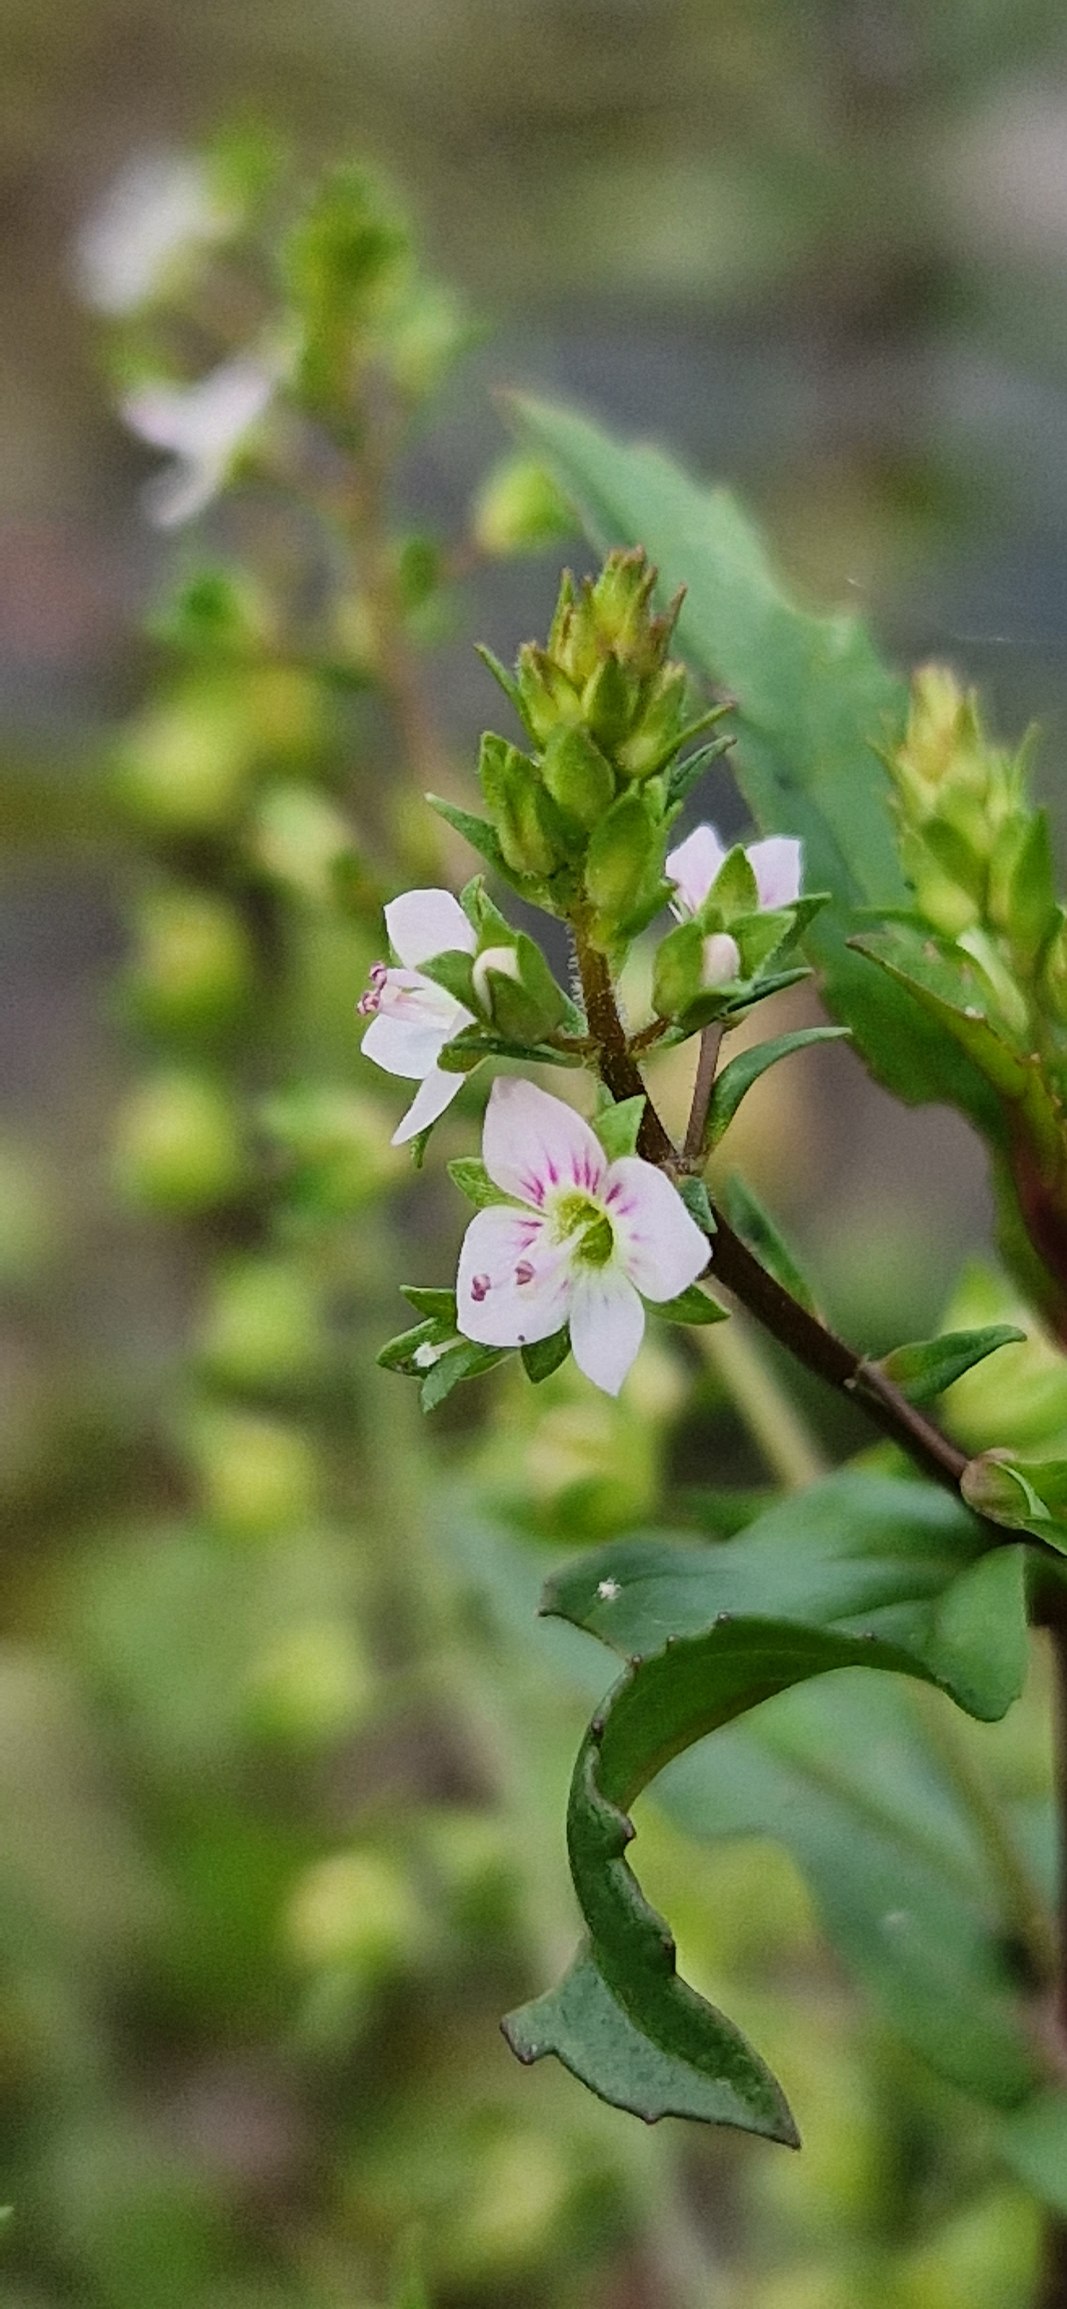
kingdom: Plantae
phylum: Tracheophyta
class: Magnoliopsida
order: Lamiales
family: Plantaginaceae
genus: Veronica
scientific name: Veronica catenata
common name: Vand-ærenpris
